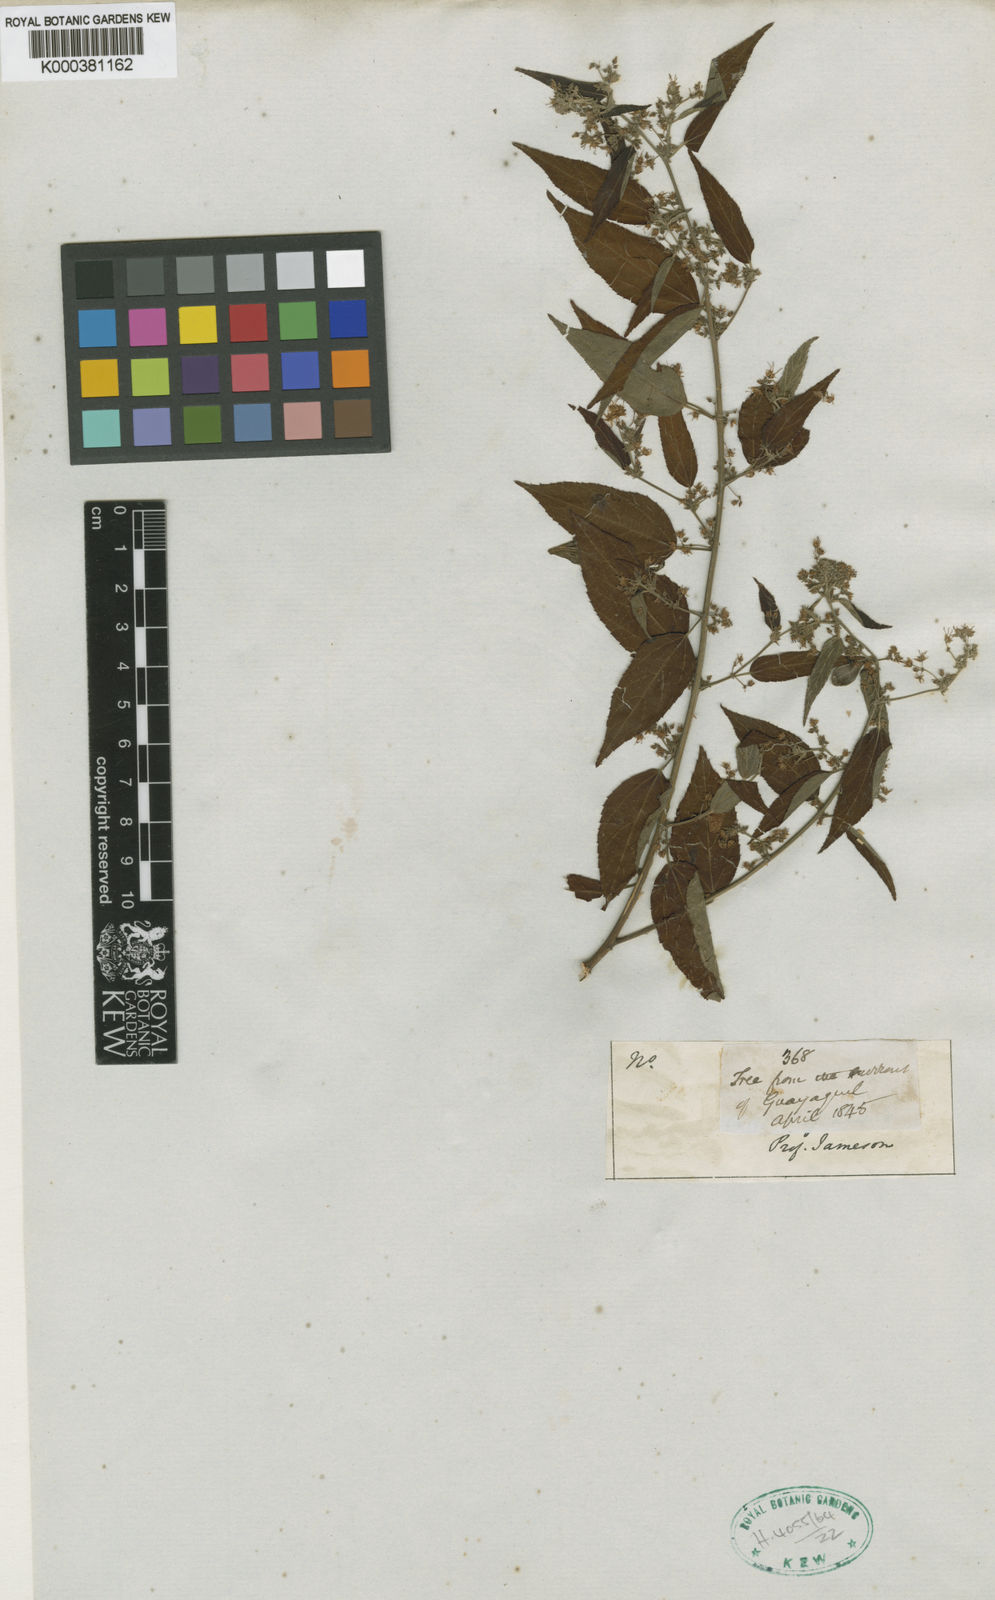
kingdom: Plantae
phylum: Tracheophyta
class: Magnoliopsida
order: Malvales
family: Malvaceae
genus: Byttneria
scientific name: Byttneria corchorifolia
